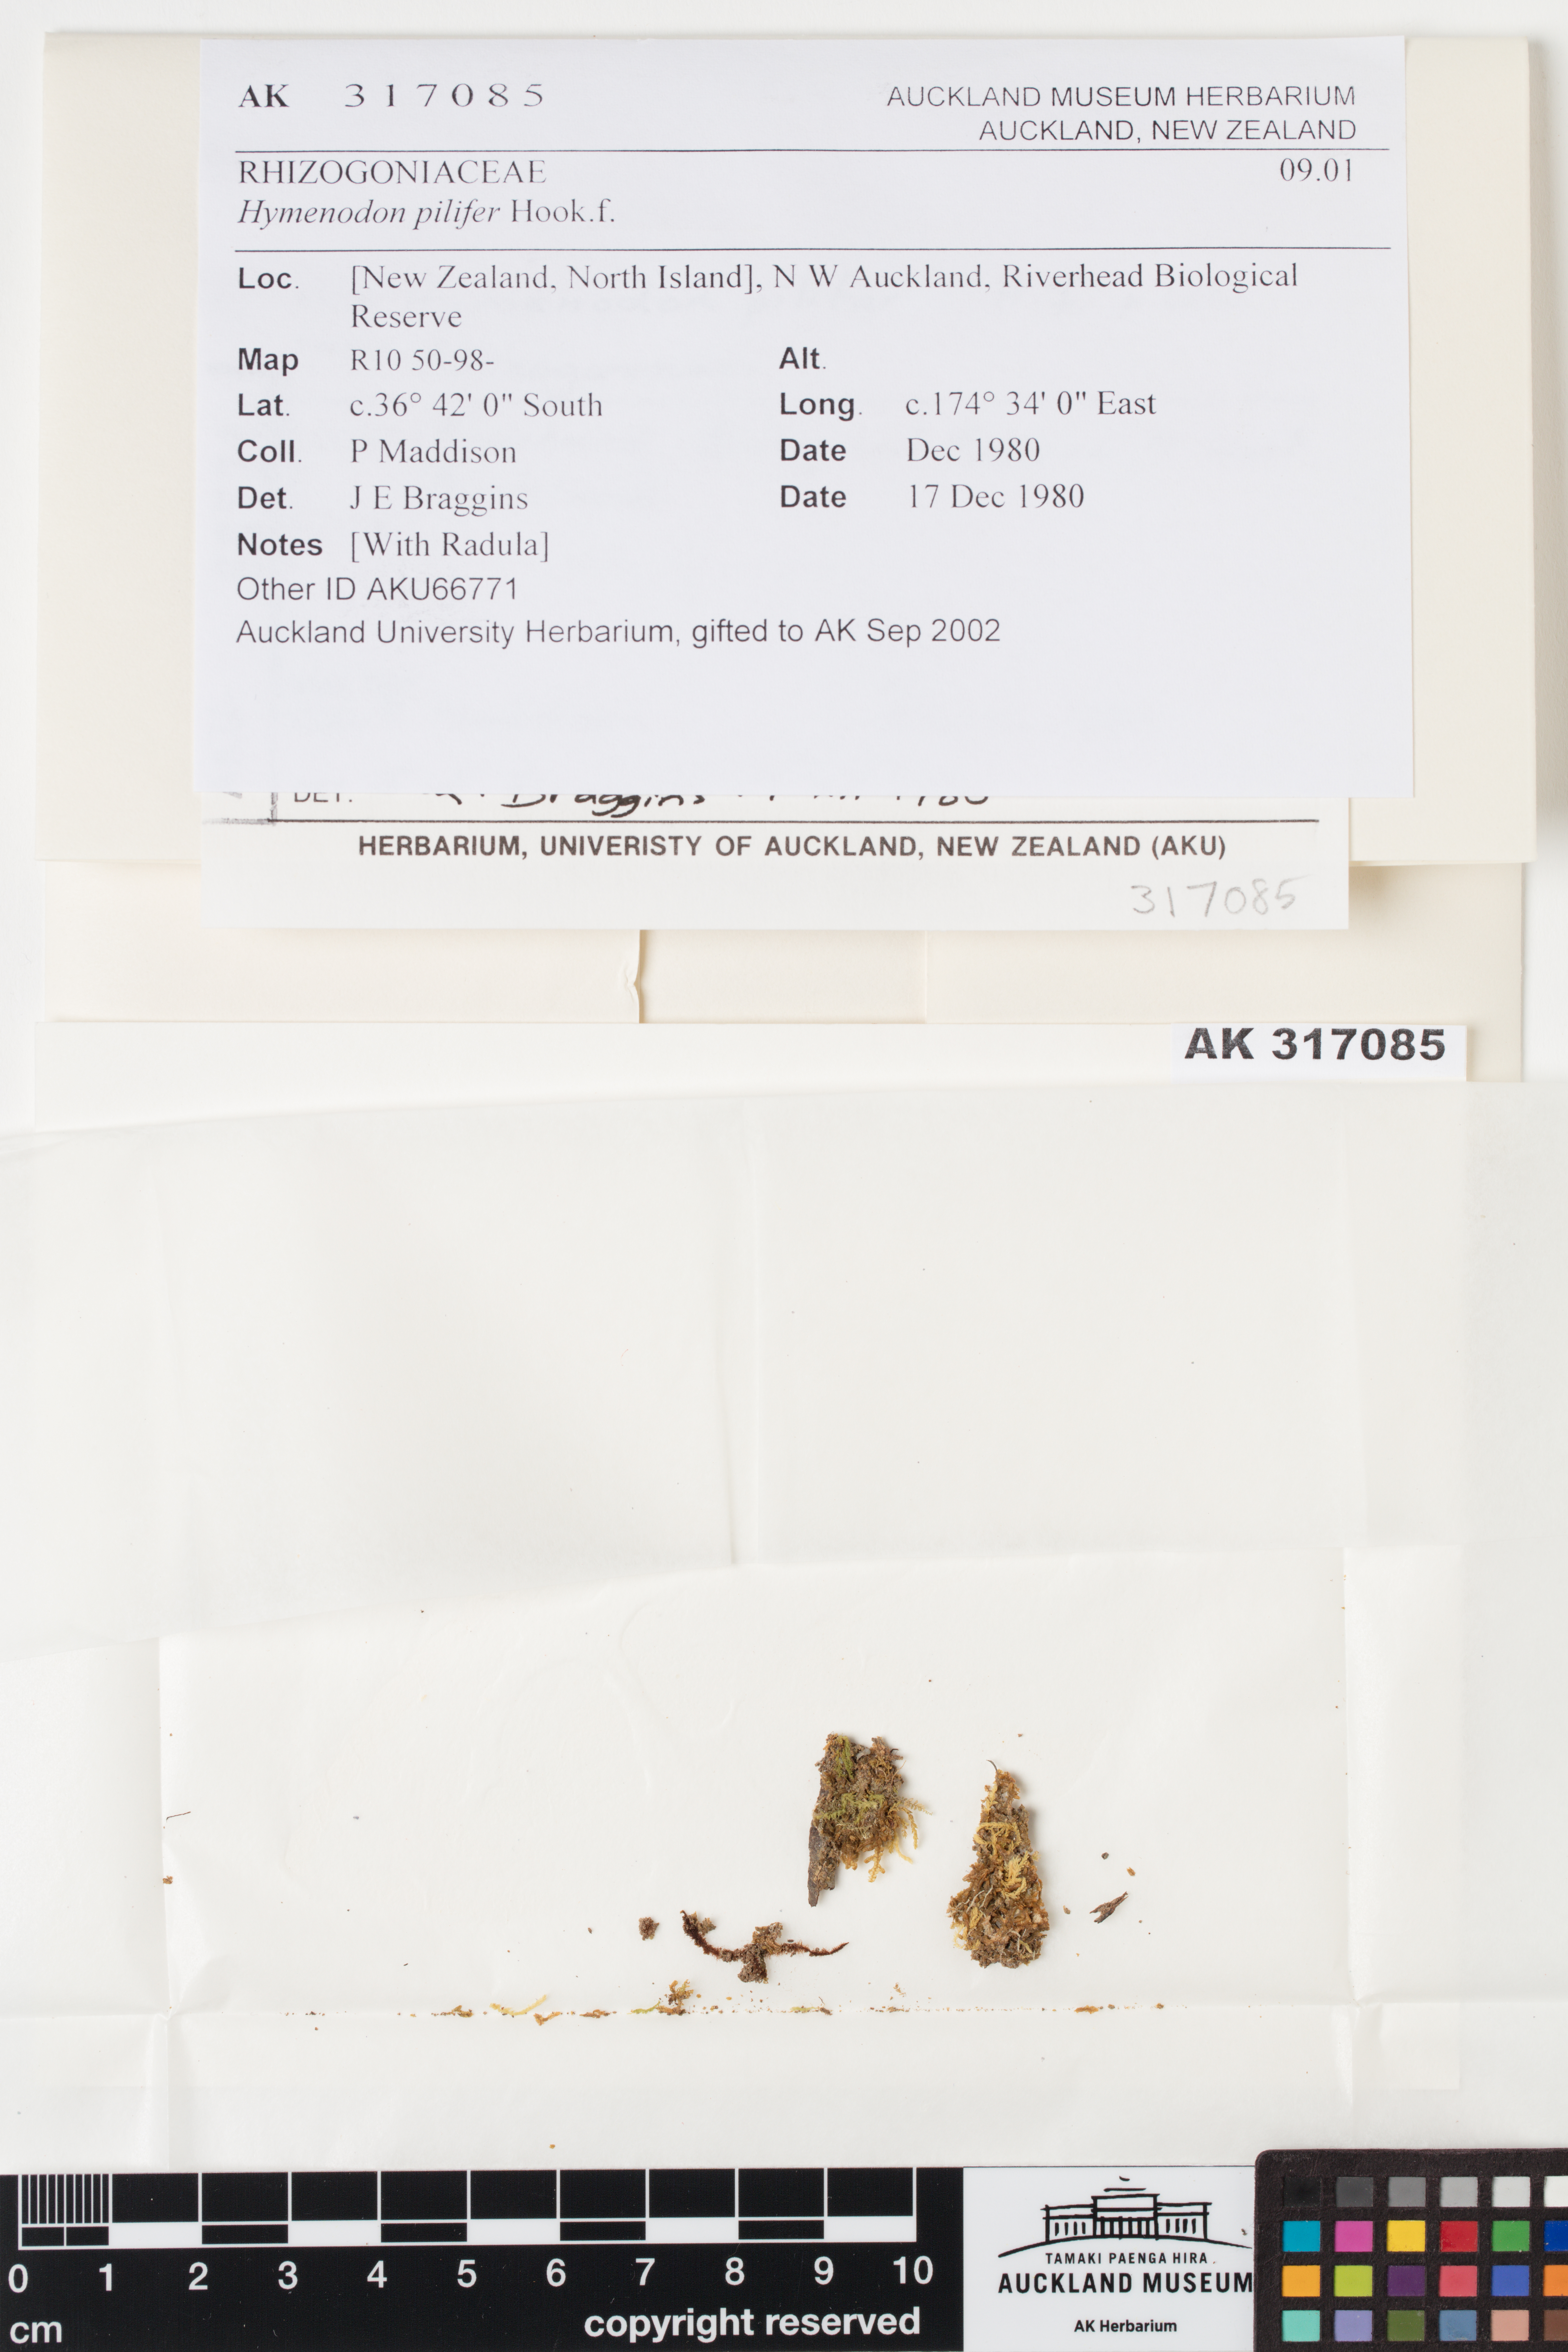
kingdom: Plantae
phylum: Bryophyta
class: Bryopsida
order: Orthodontiales
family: Orthodontiaceae
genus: Hymenodon
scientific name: Hymenodon pilifer
